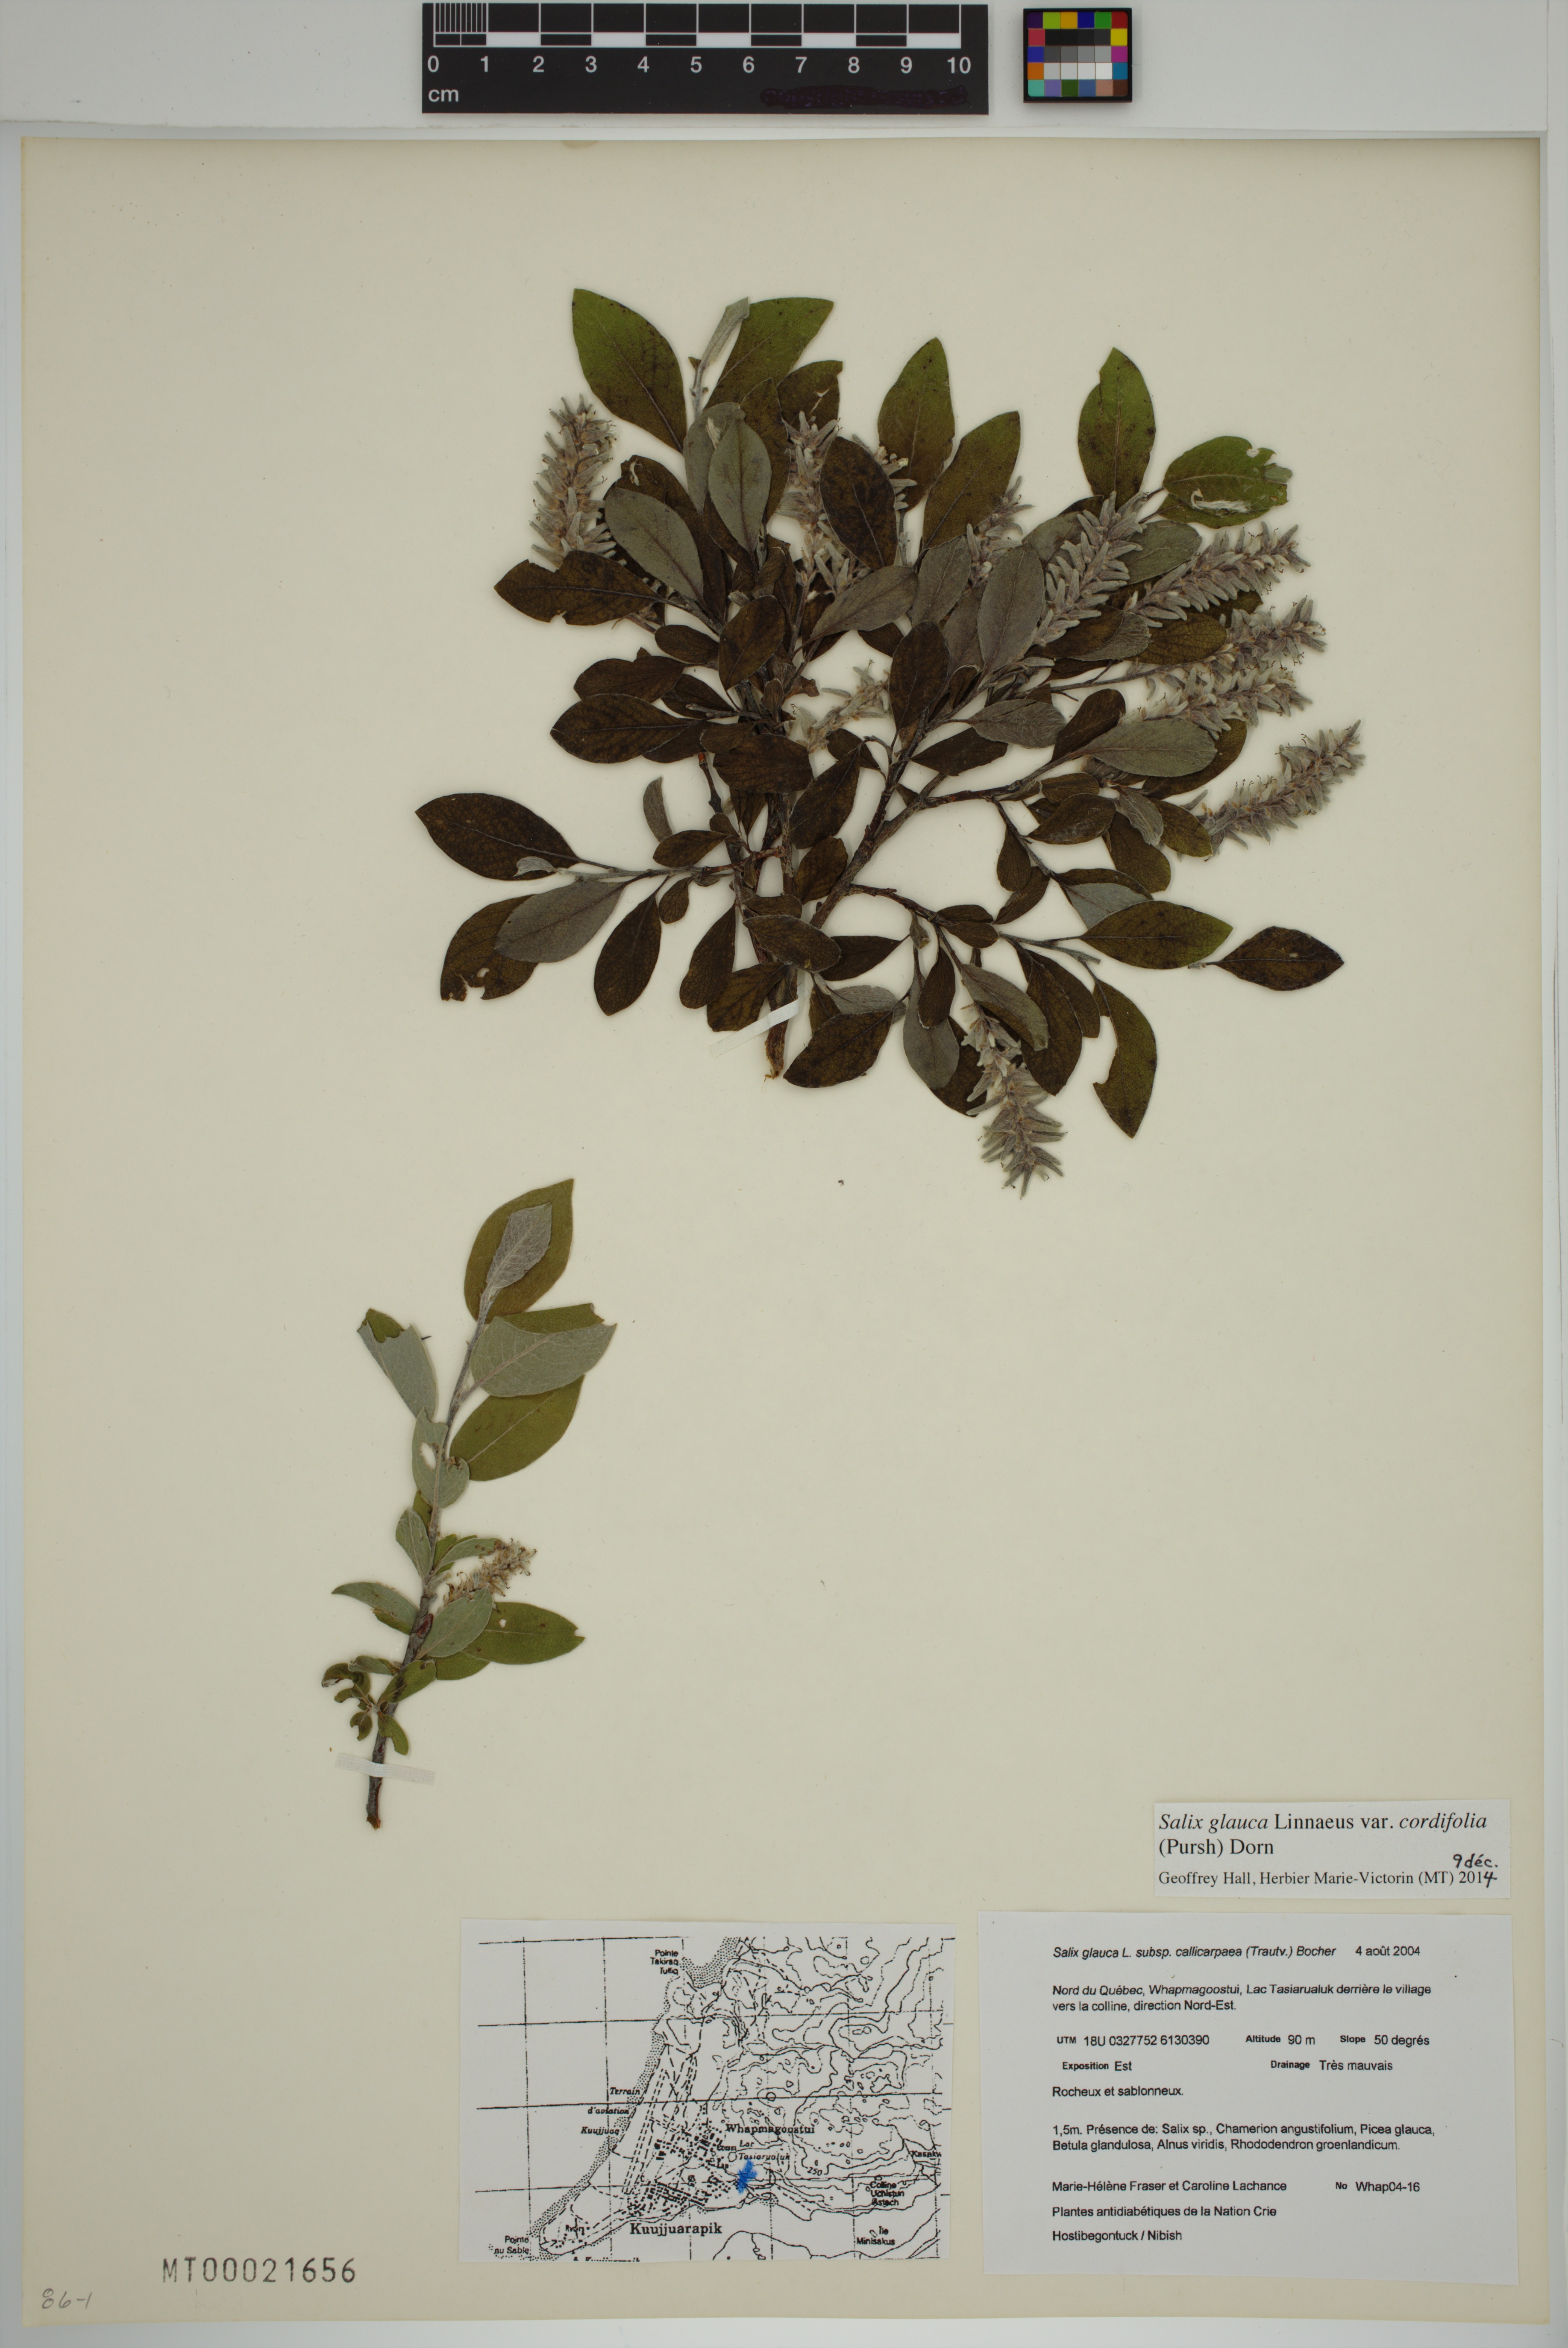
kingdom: Plantae
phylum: Tracheophyta
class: Magnoliopsida
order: Malpighiales
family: Salicaceae
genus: Salix
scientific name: Salix glauca
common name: Glaucous willow
